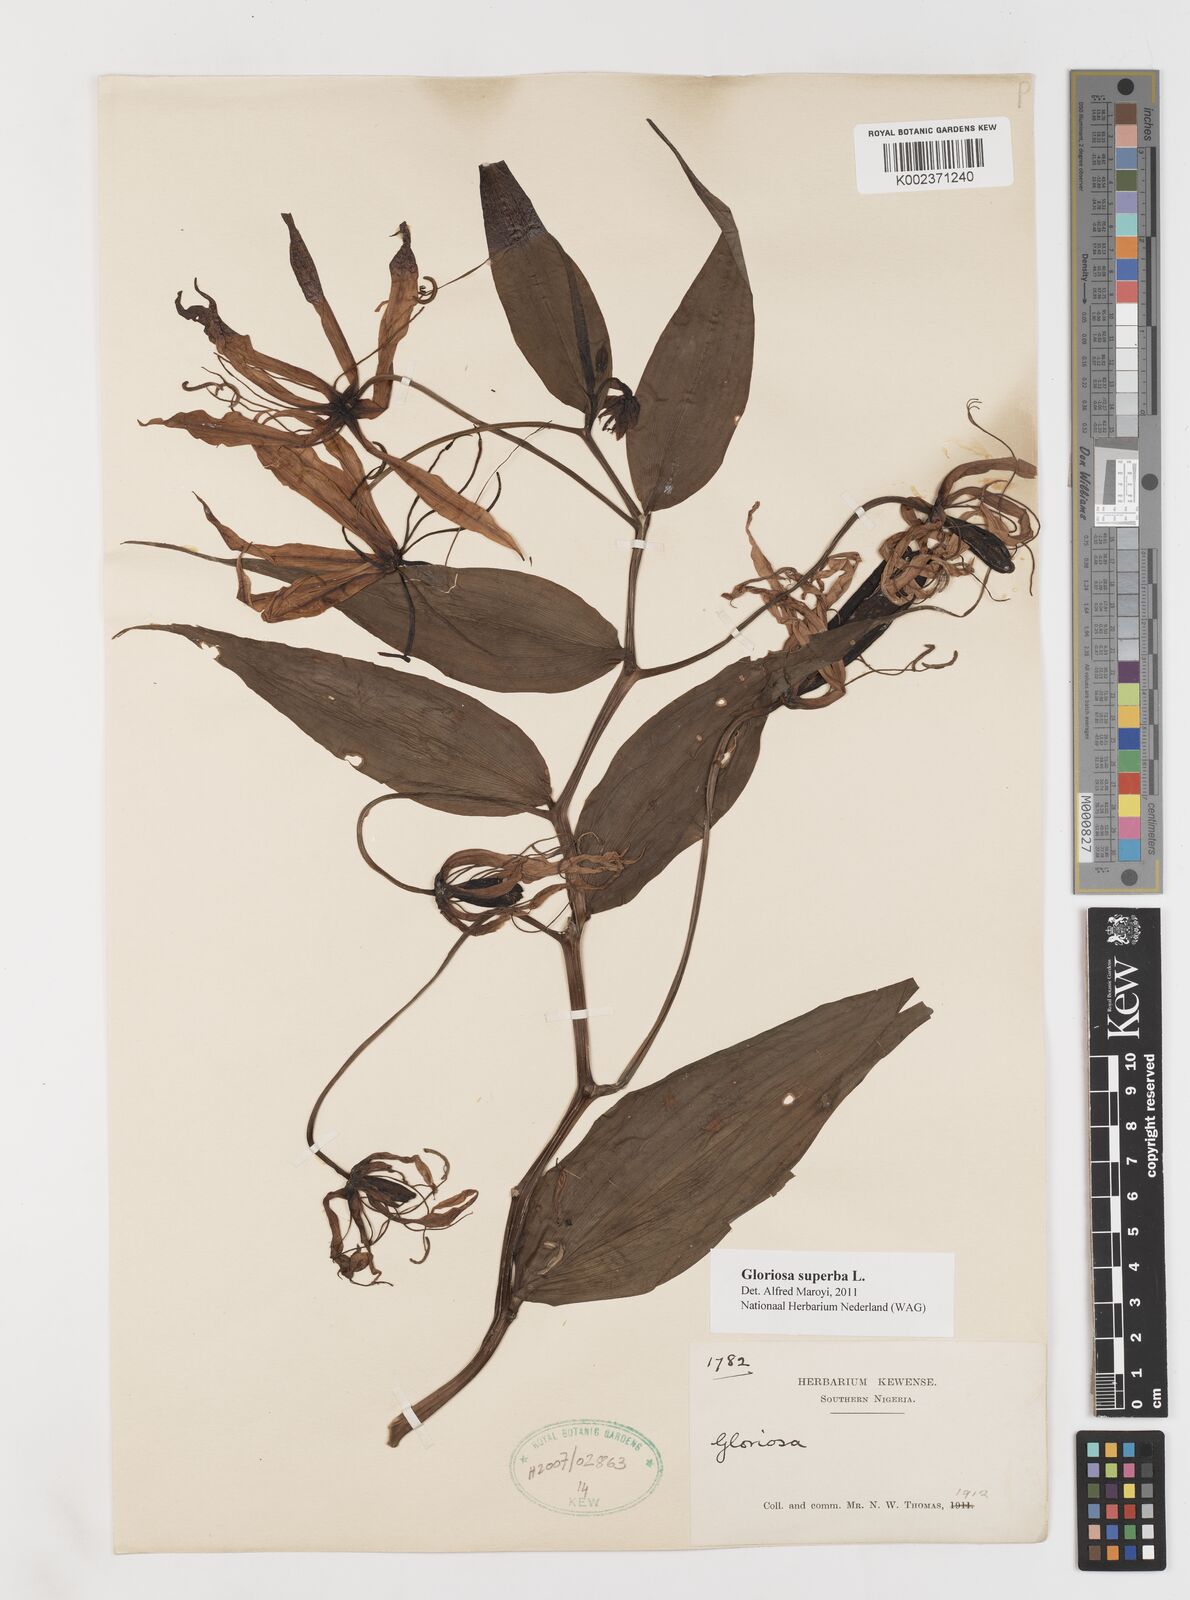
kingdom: Plantae
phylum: Tracheophyta
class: Liliopsida
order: Liliales
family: Colchicaceae
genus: Gloriosa
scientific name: Gloriosa superba
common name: Flame lily
